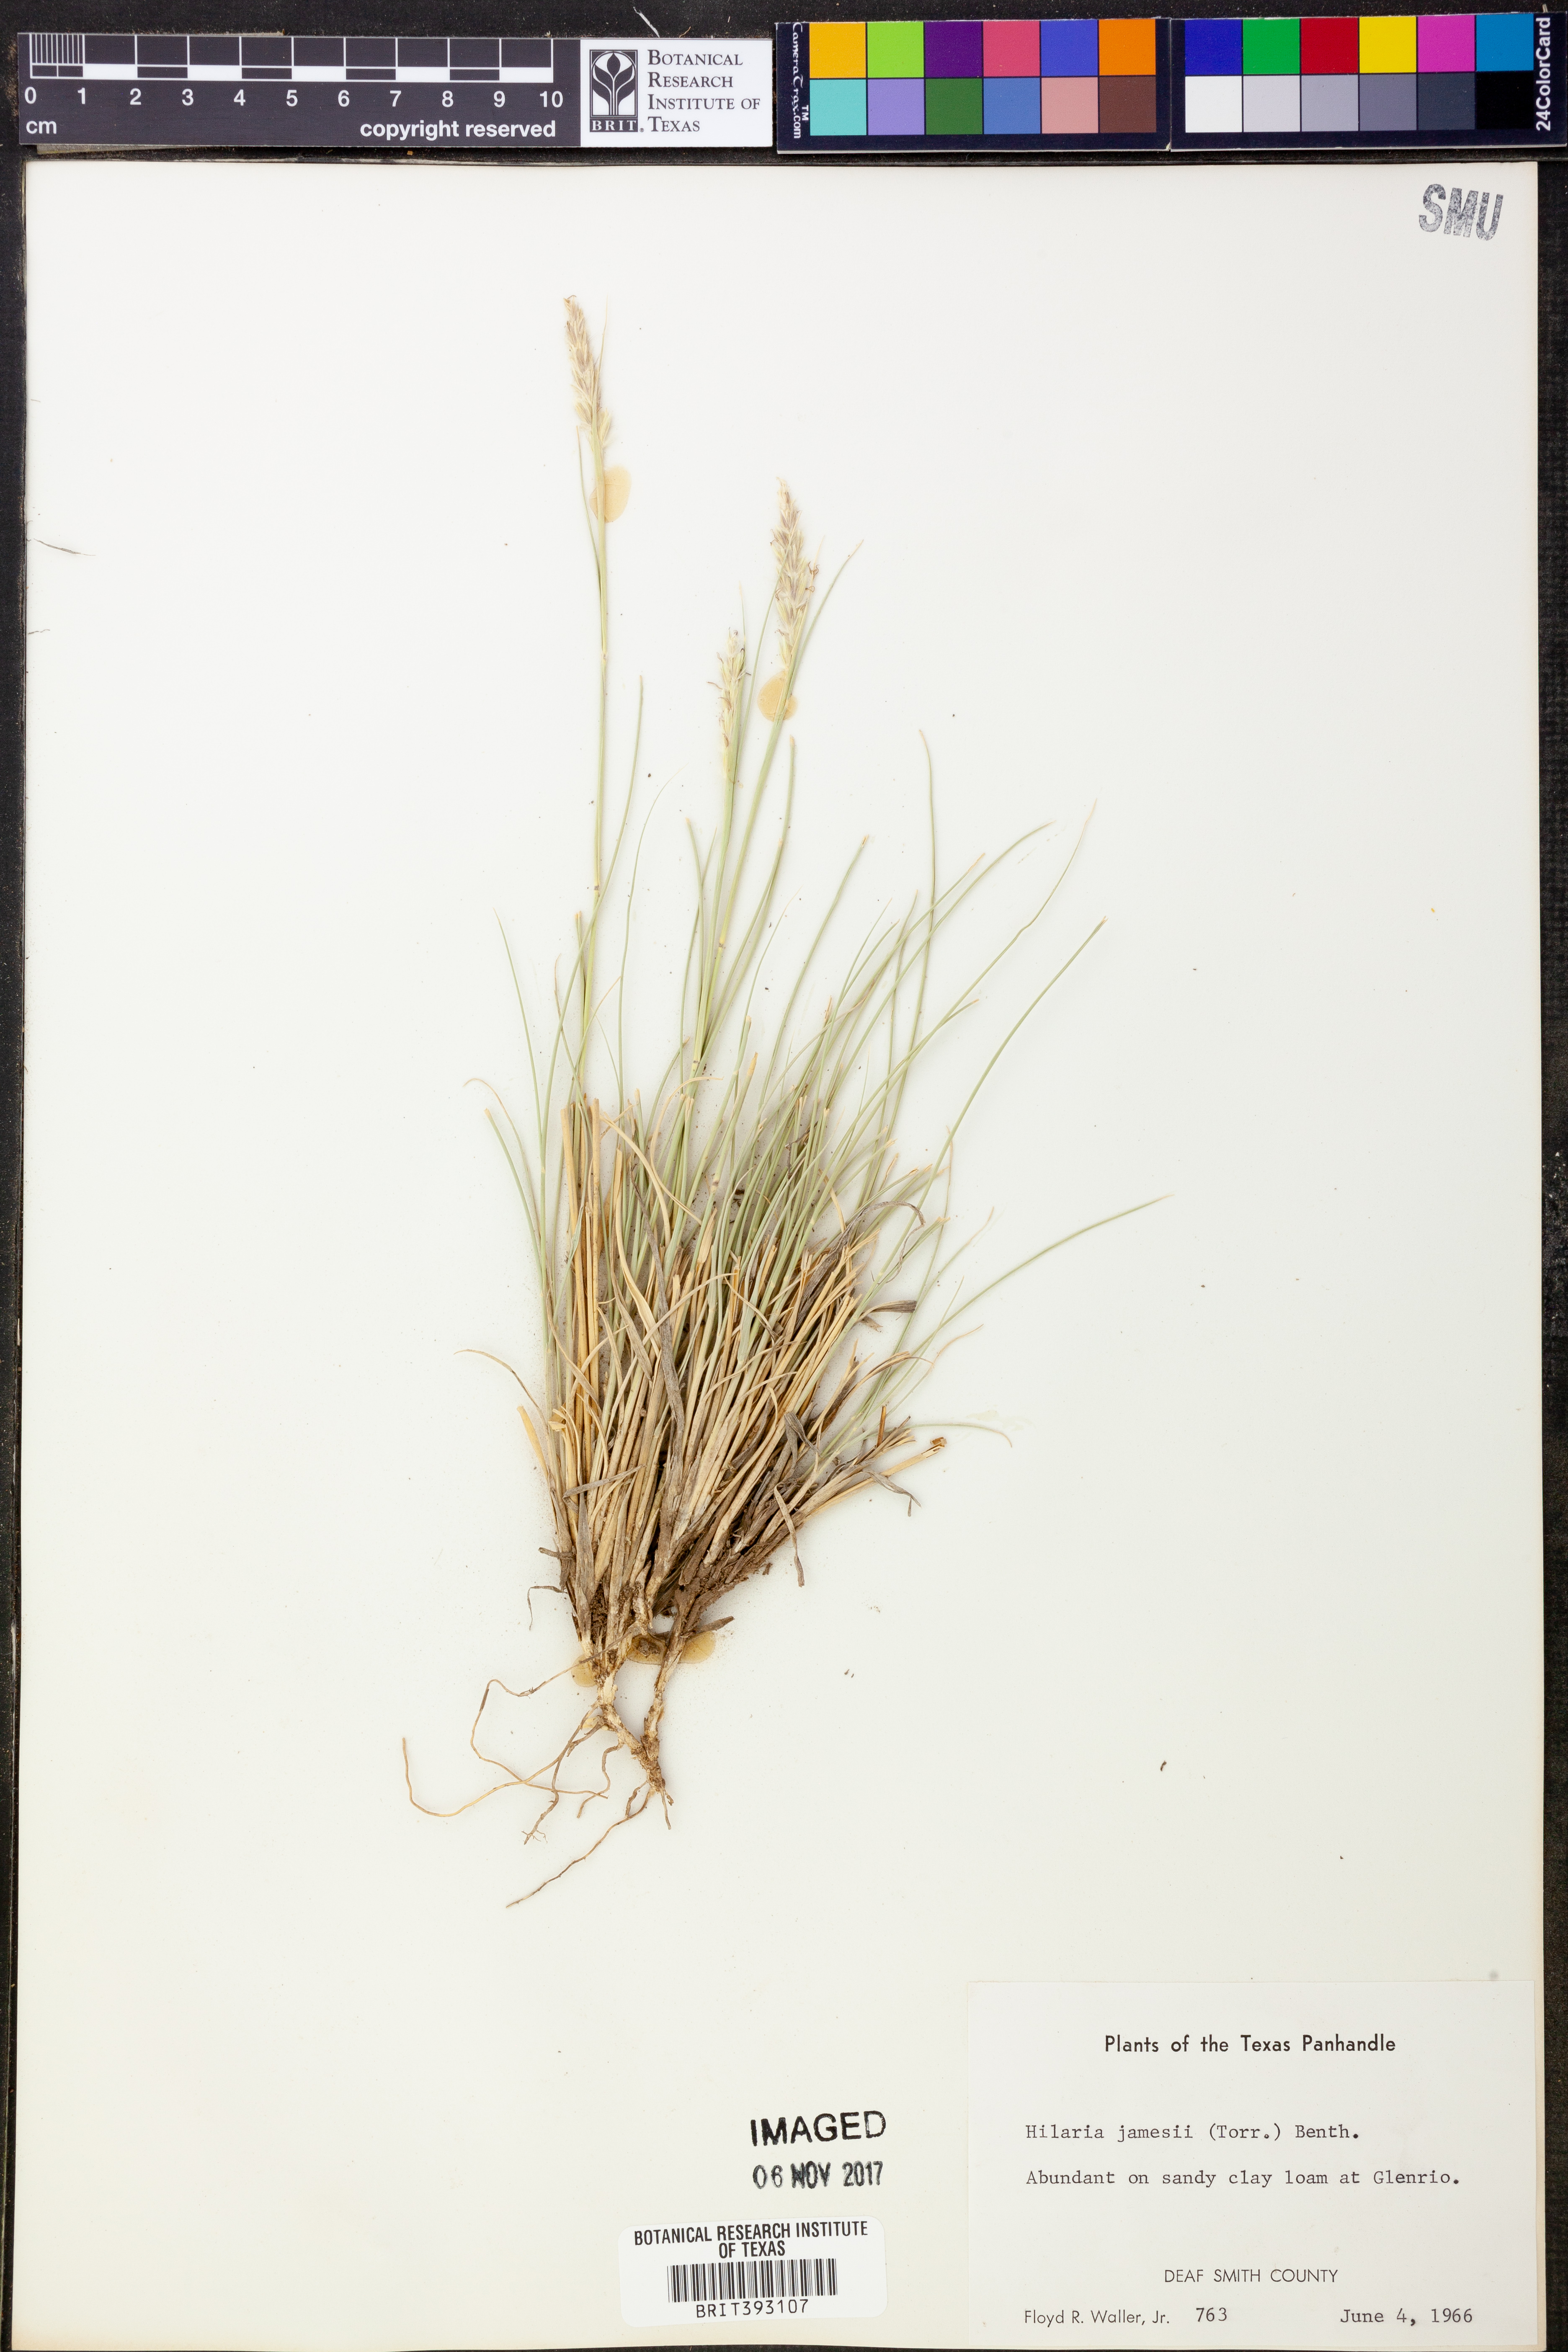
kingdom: Plantae
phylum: Tracheophyta
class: Liliopsida
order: Poales
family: Poaceae
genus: Hilaria
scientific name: Hilaria jamesii
